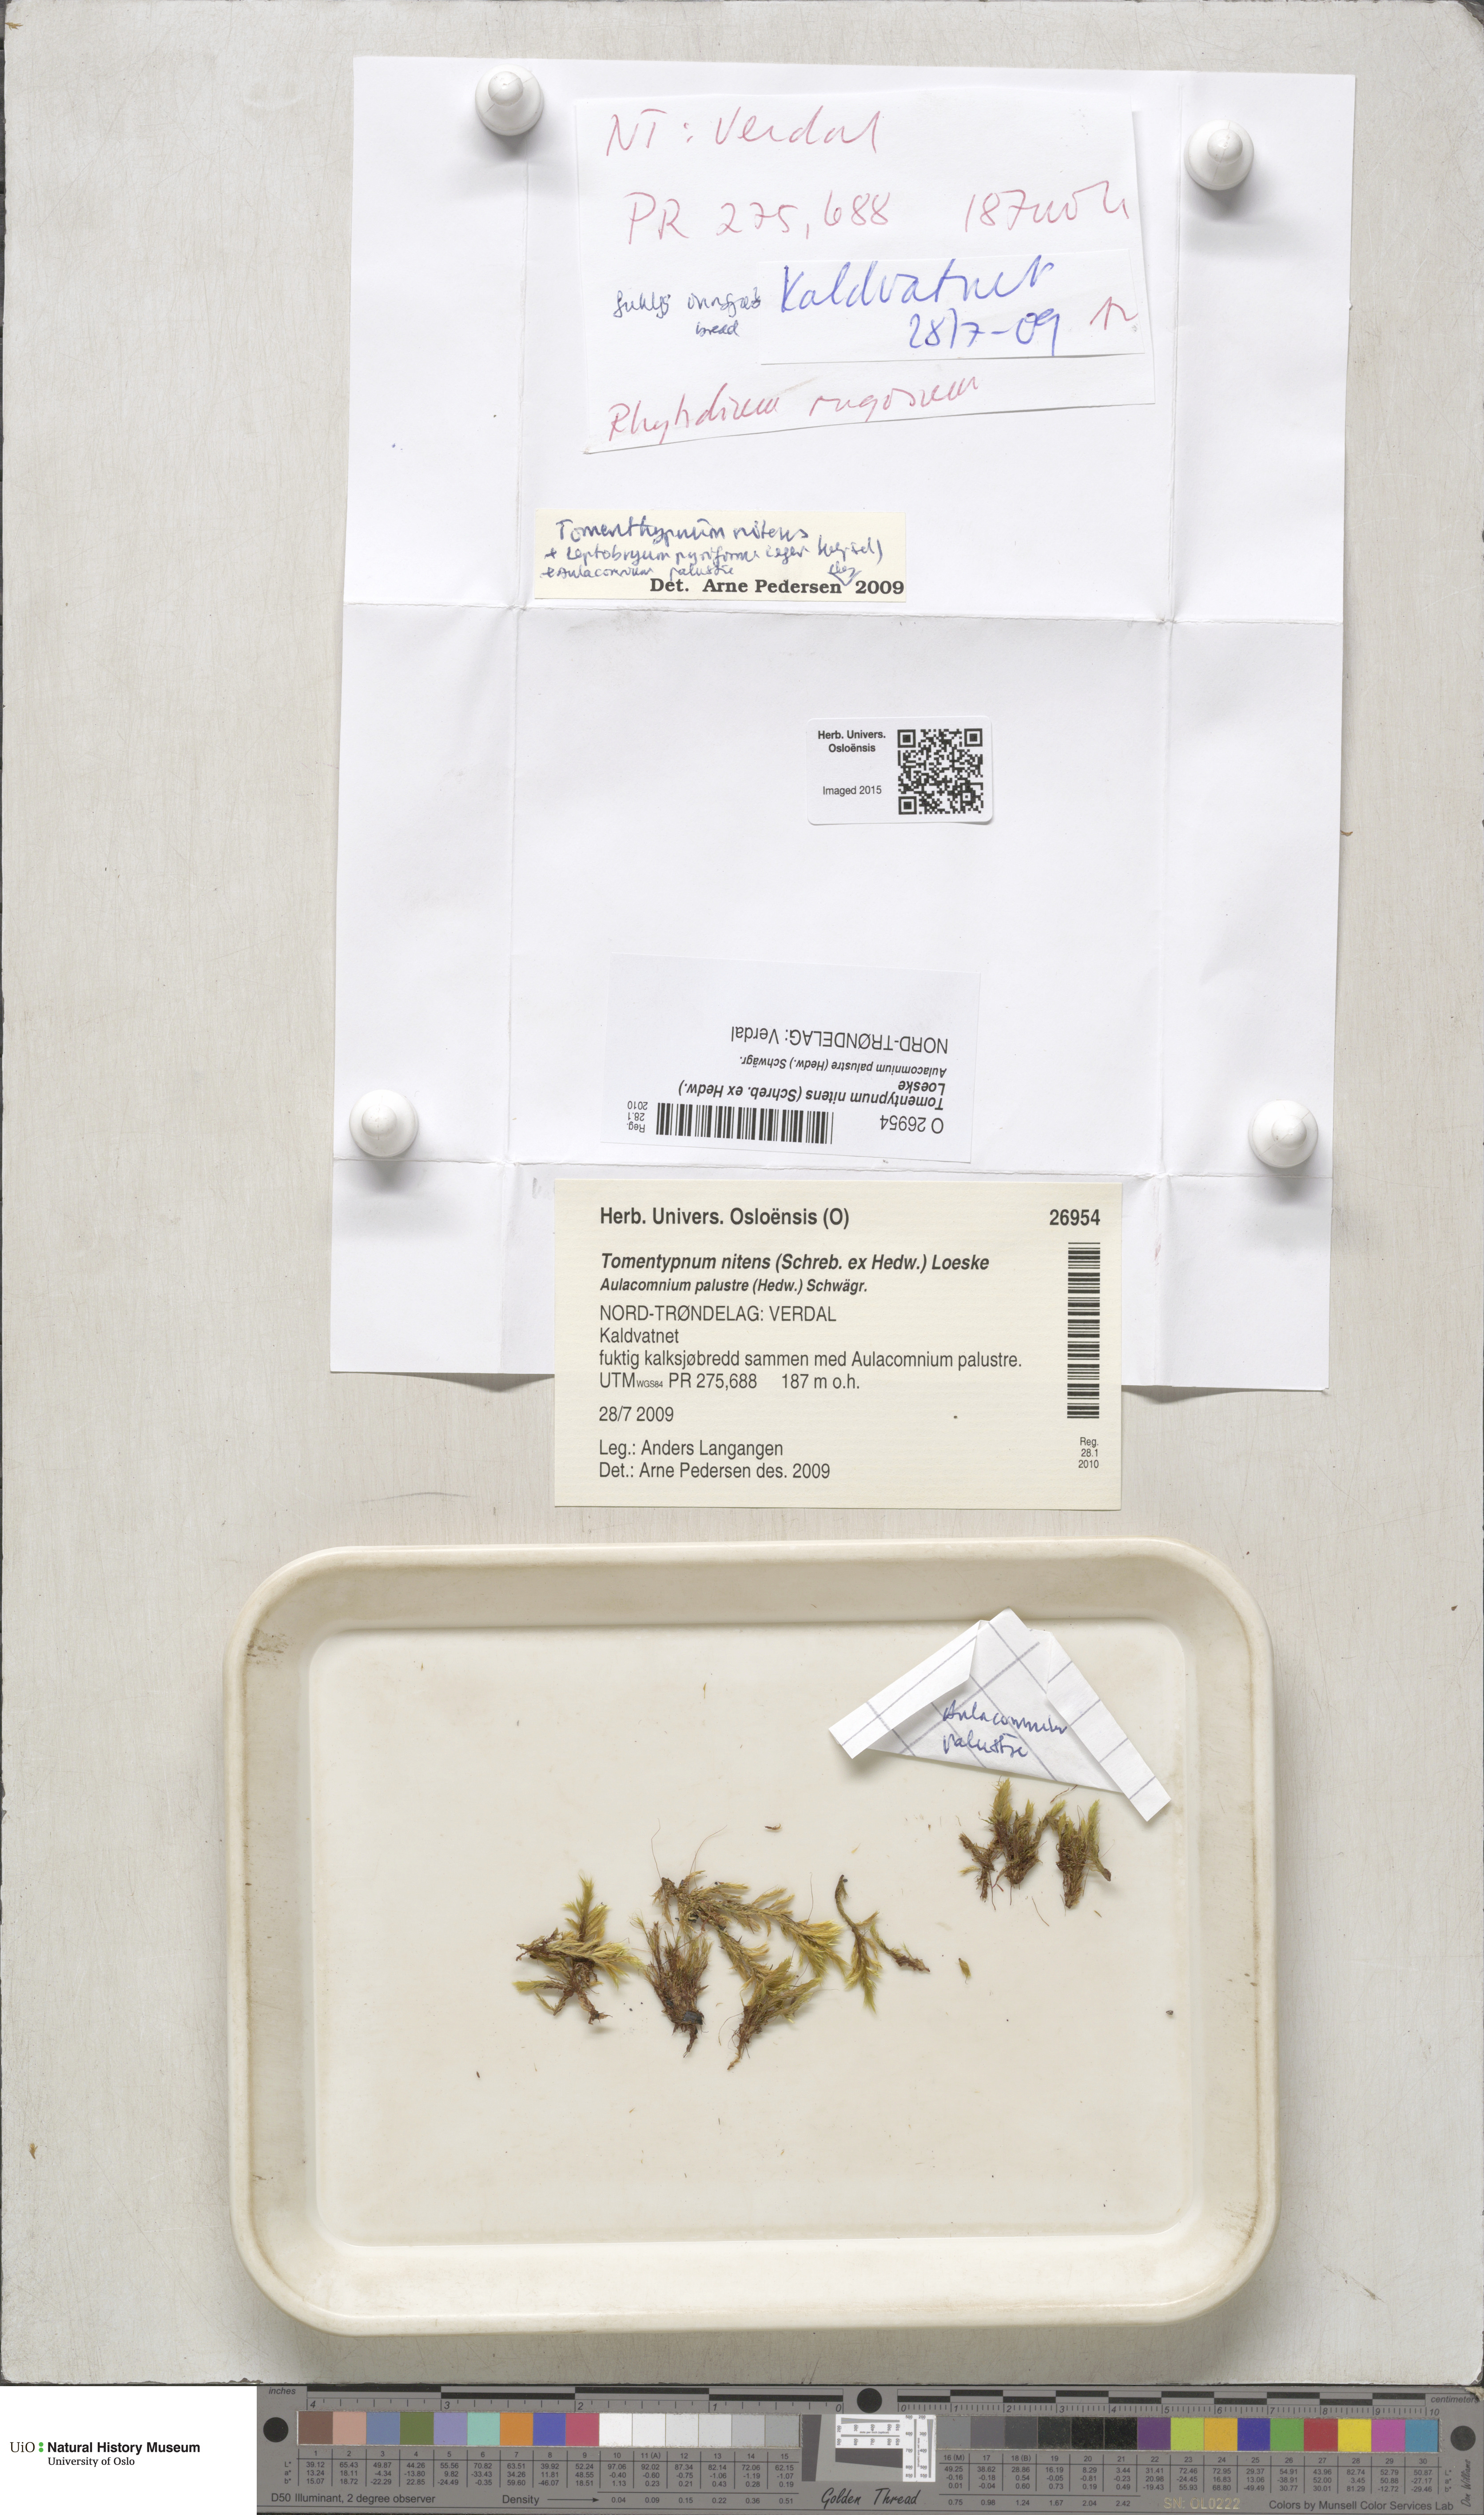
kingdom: Plantae
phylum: Bryophyta
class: Bryopsida
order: Hypnales
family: Amblystegiaceae
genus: Tomentypnum
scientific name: Tomentypnum nitens
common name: Golden fuzzy fen moss
